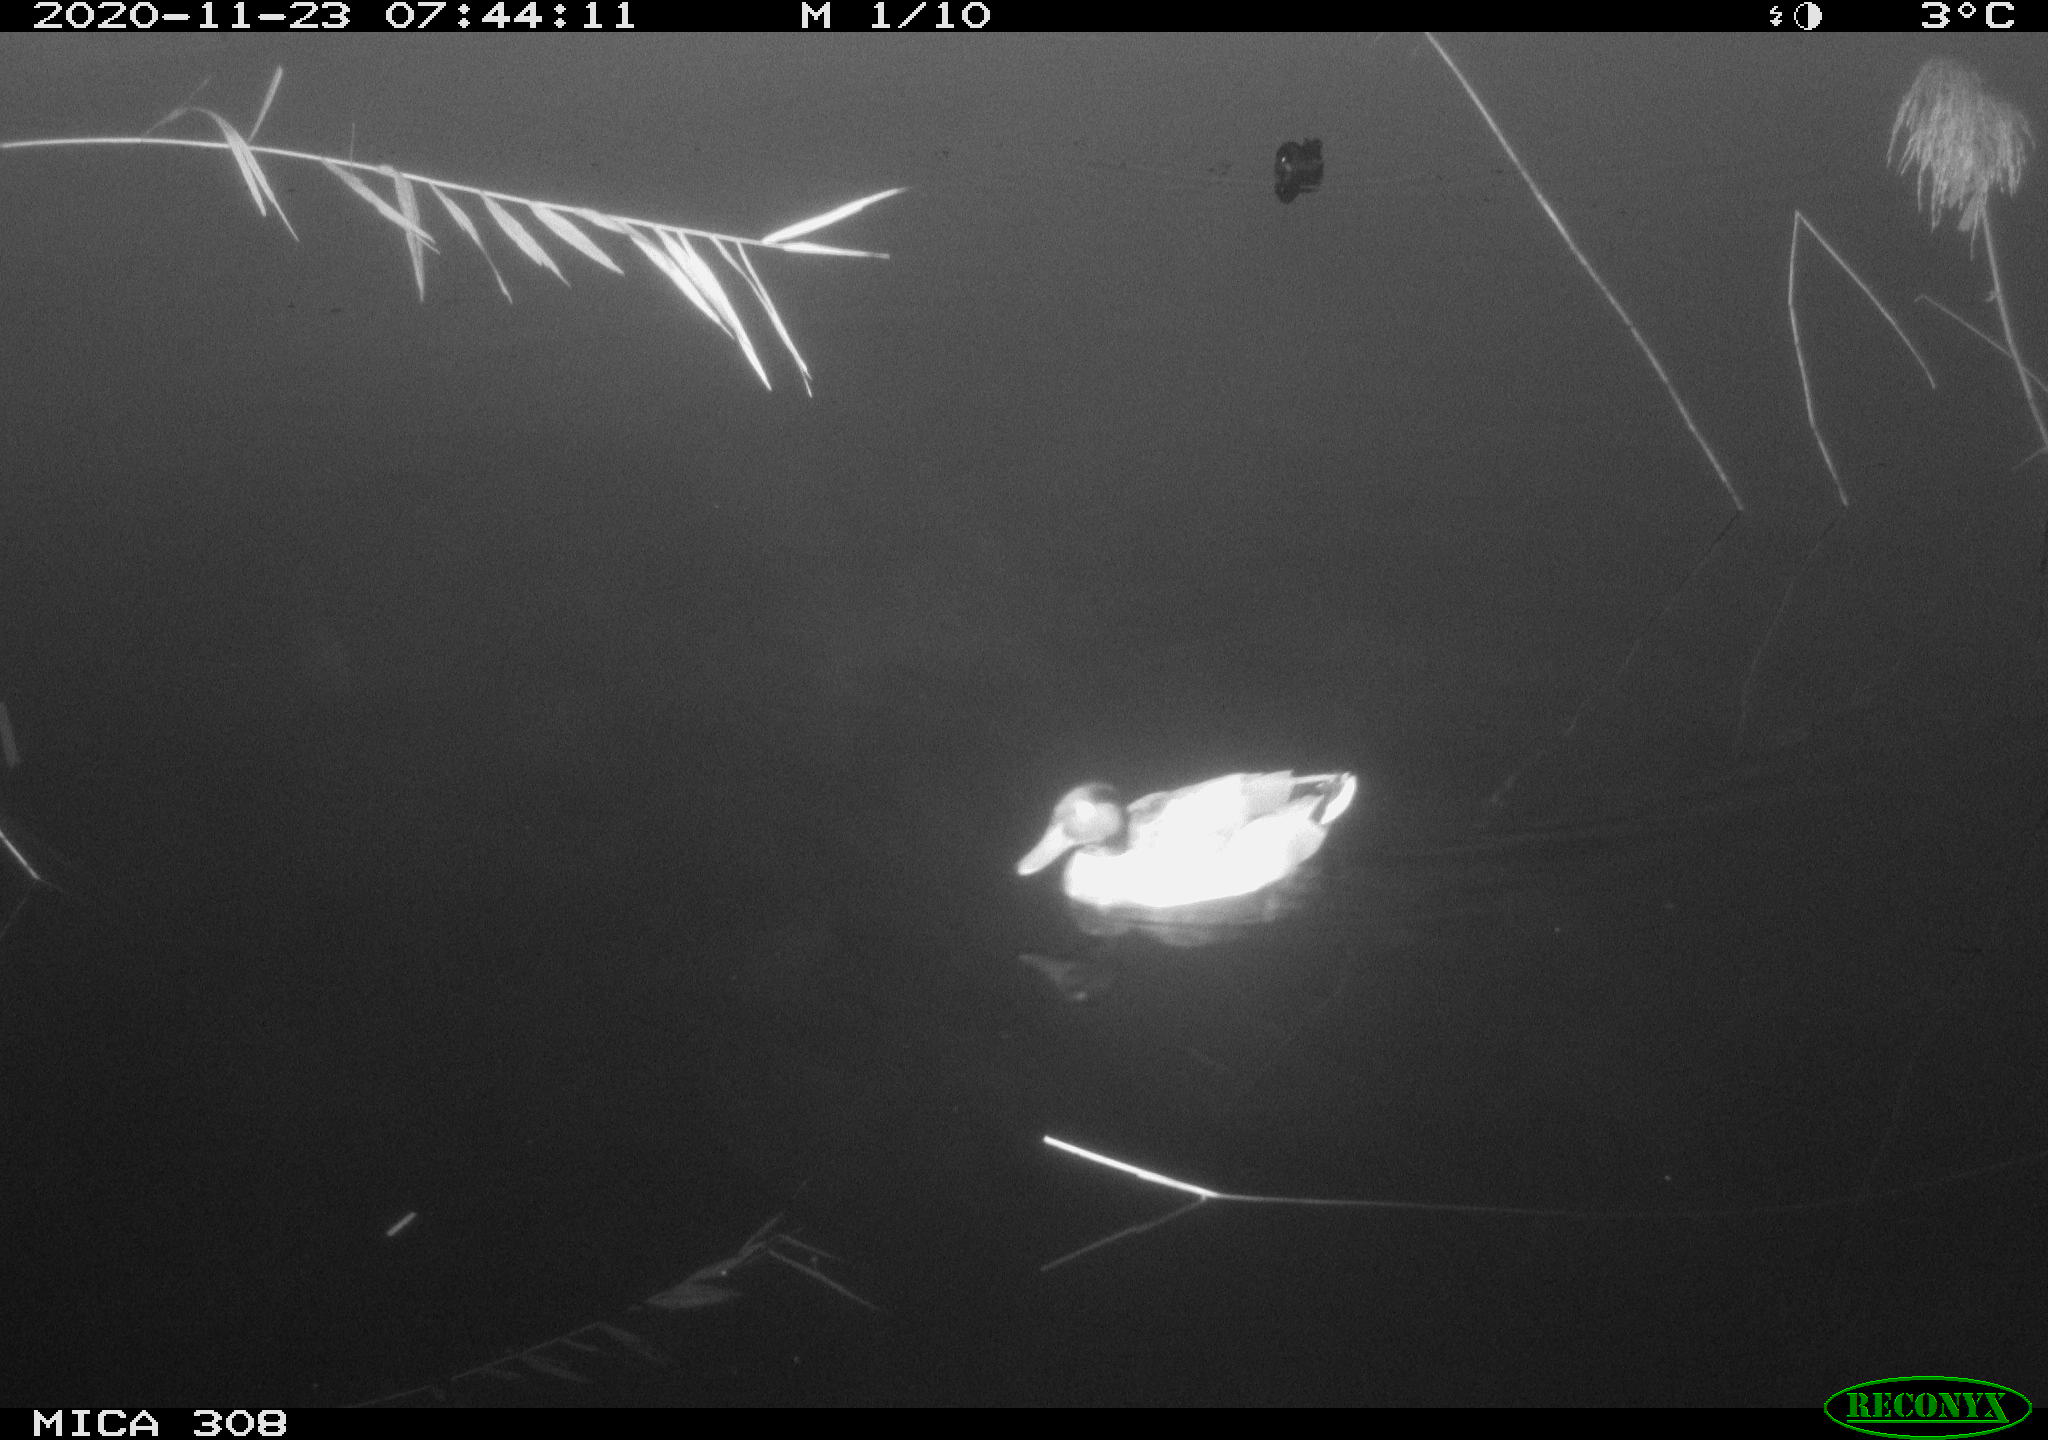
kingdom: Animalia
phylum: Chordata
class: Aves
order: Anseriformes
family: Anatidae
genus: Anas
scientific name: Anas platyrhynchos
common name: Mallard
